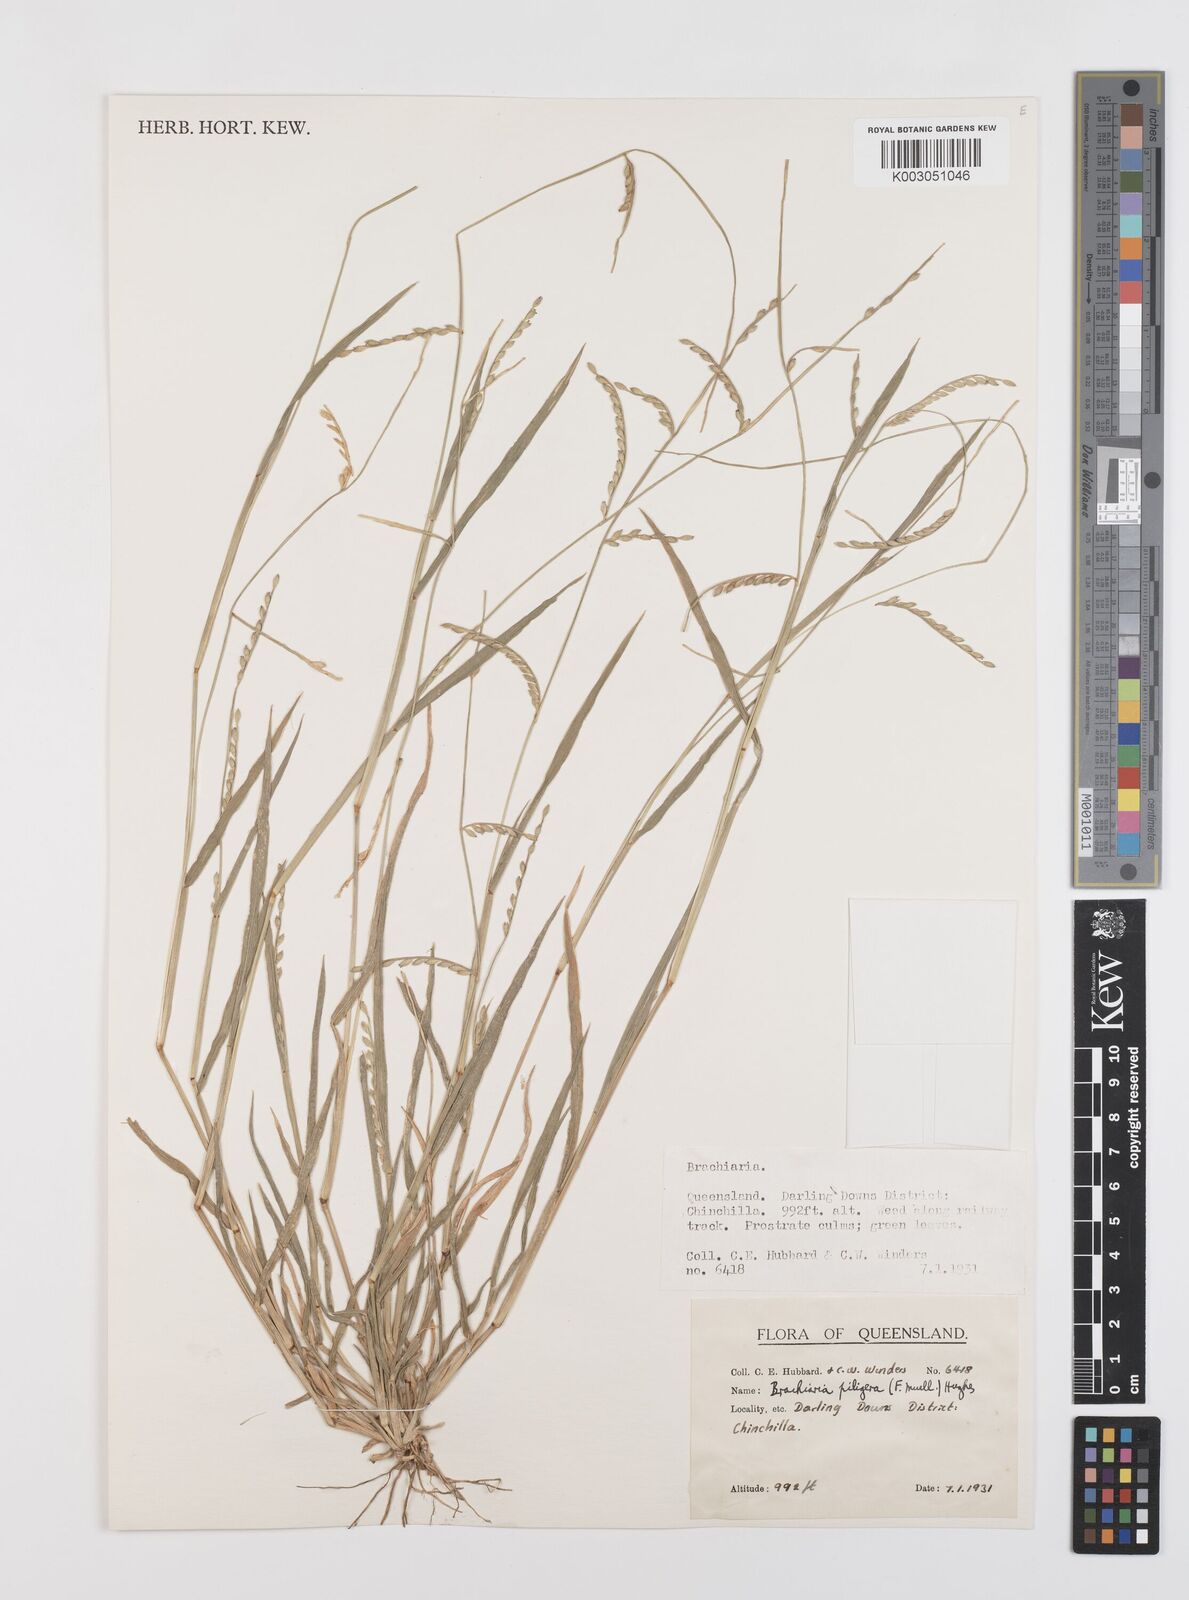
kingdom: Plantae
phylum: Tracheophyta
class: Liliopsida
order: Poales
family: Poaceae
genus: Urochloa
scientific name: Urochloa piligera
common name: Wattle signalgrass
